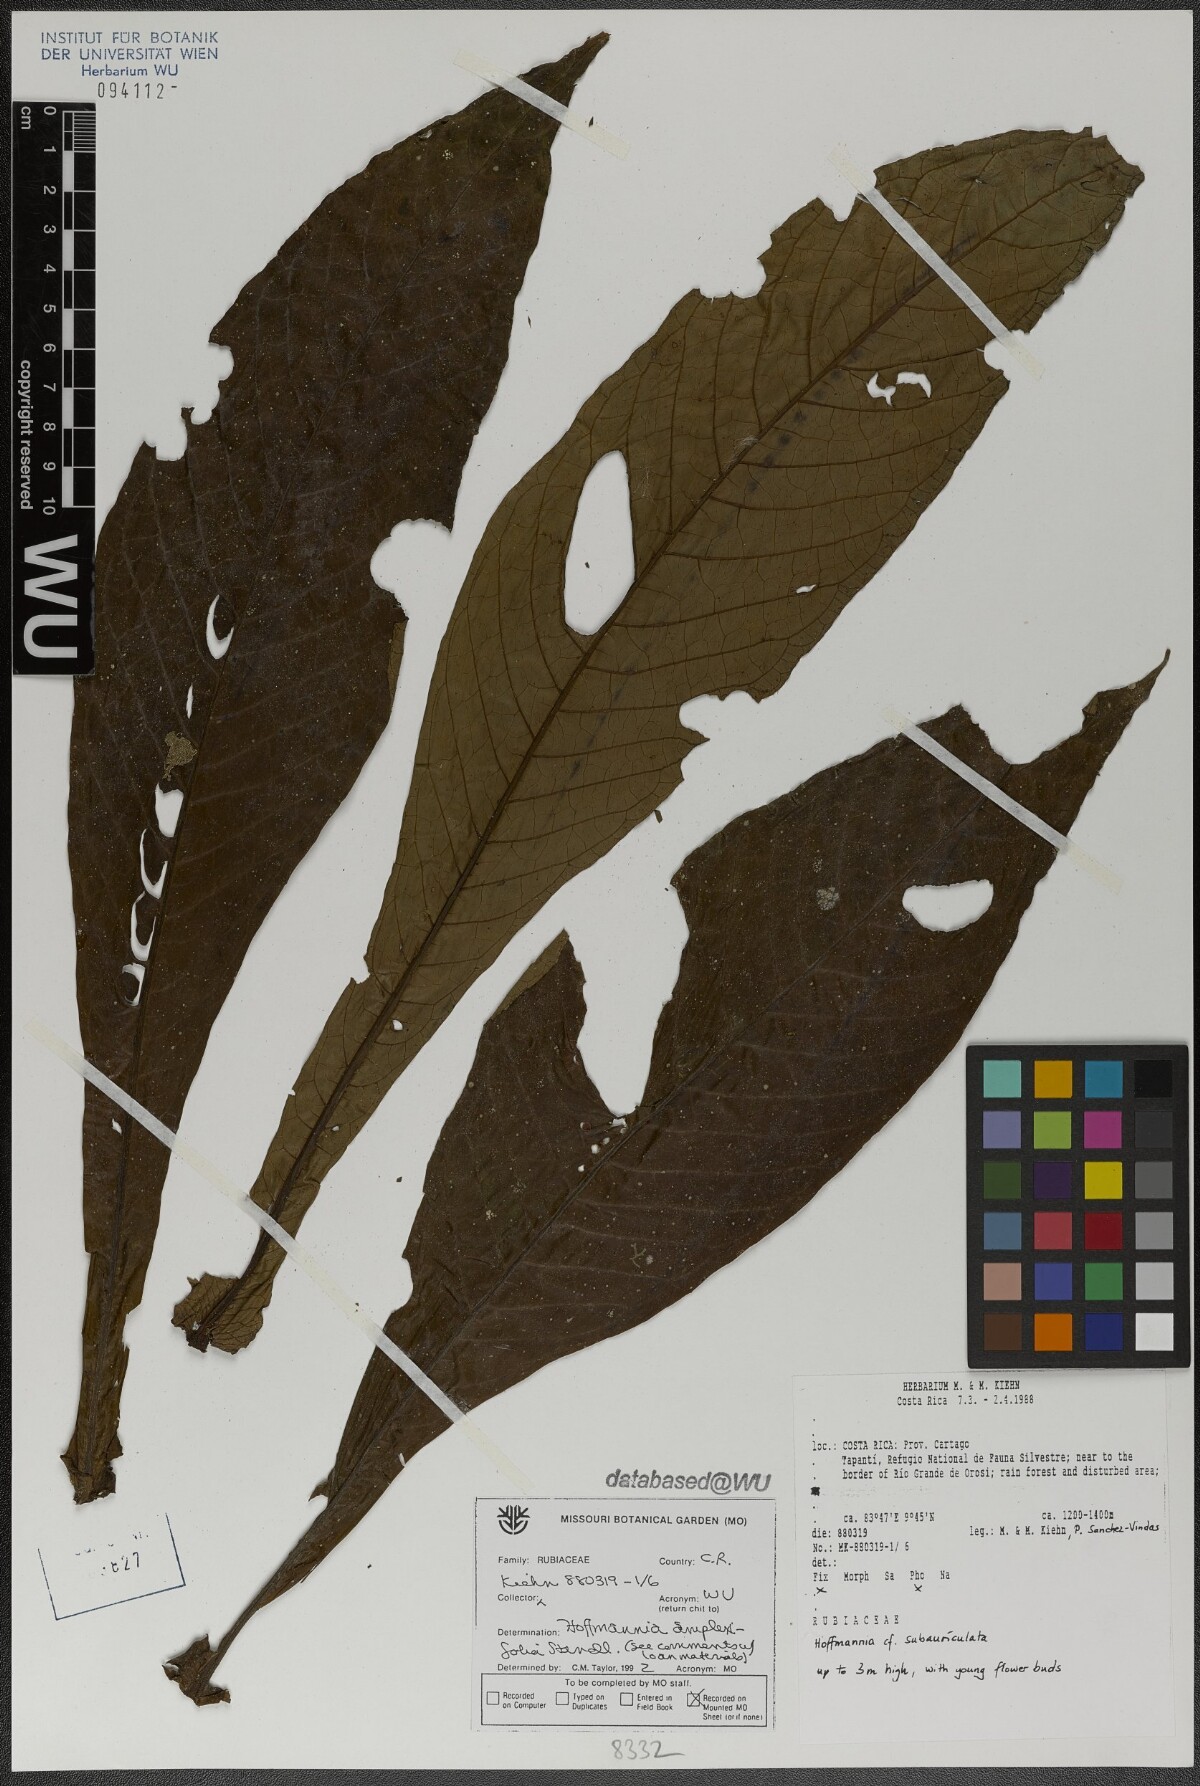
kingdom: Plantae
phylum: Tracheophyta
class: Magnoliopsida
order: Gentianales
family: Rubiaceae
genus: Hoffmannia
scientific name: Hoffmannia amplexifolia
